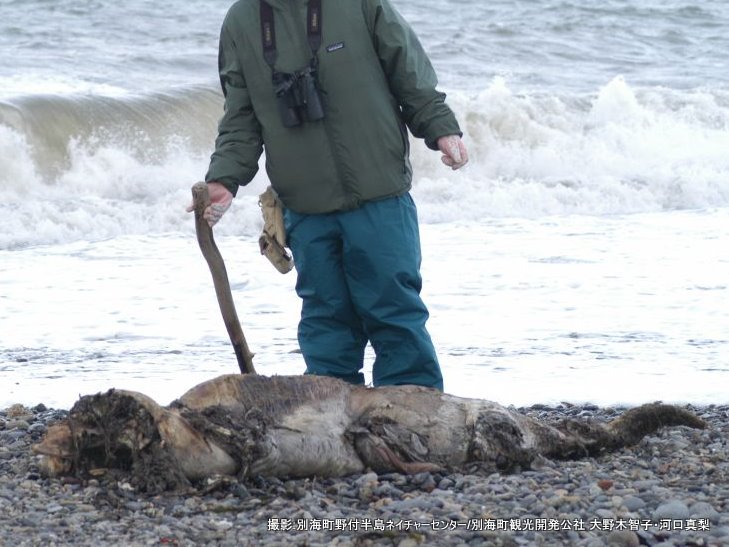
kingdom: Animalia
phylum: Chordata
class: Mammalia
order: Cetacea
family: Delphinidae
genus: Lagenorhynchus
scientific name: Lagenorhynchus obliquidens
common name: Pacific white-sided dolphin
